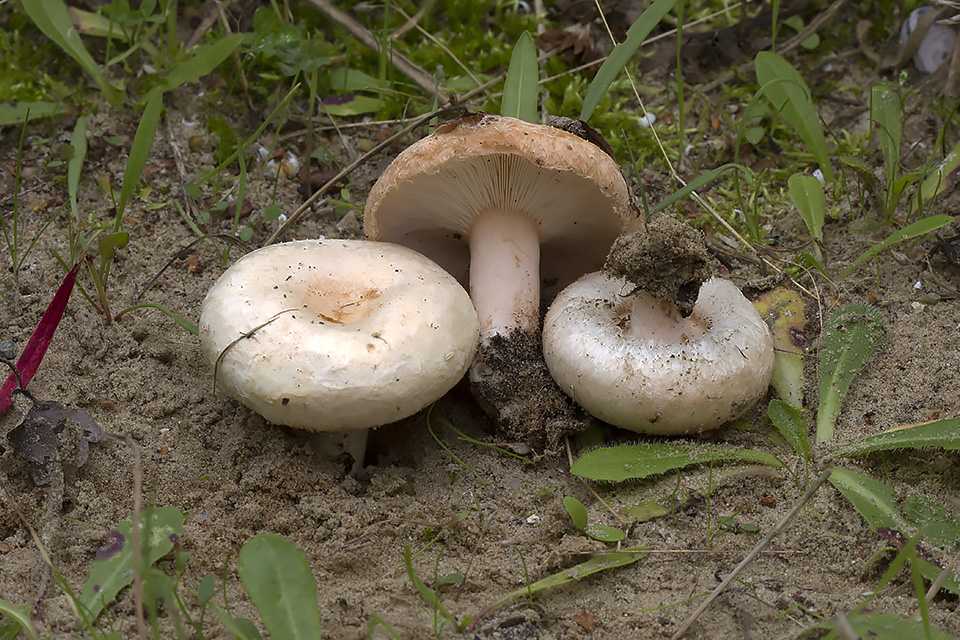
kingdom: Fungi
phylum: Basidiomycota
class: Agaricomycetes
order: Russulales
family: Russulaceae
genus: Lactarius
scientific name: Lactarius pubescens
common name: dunet mælkehat
